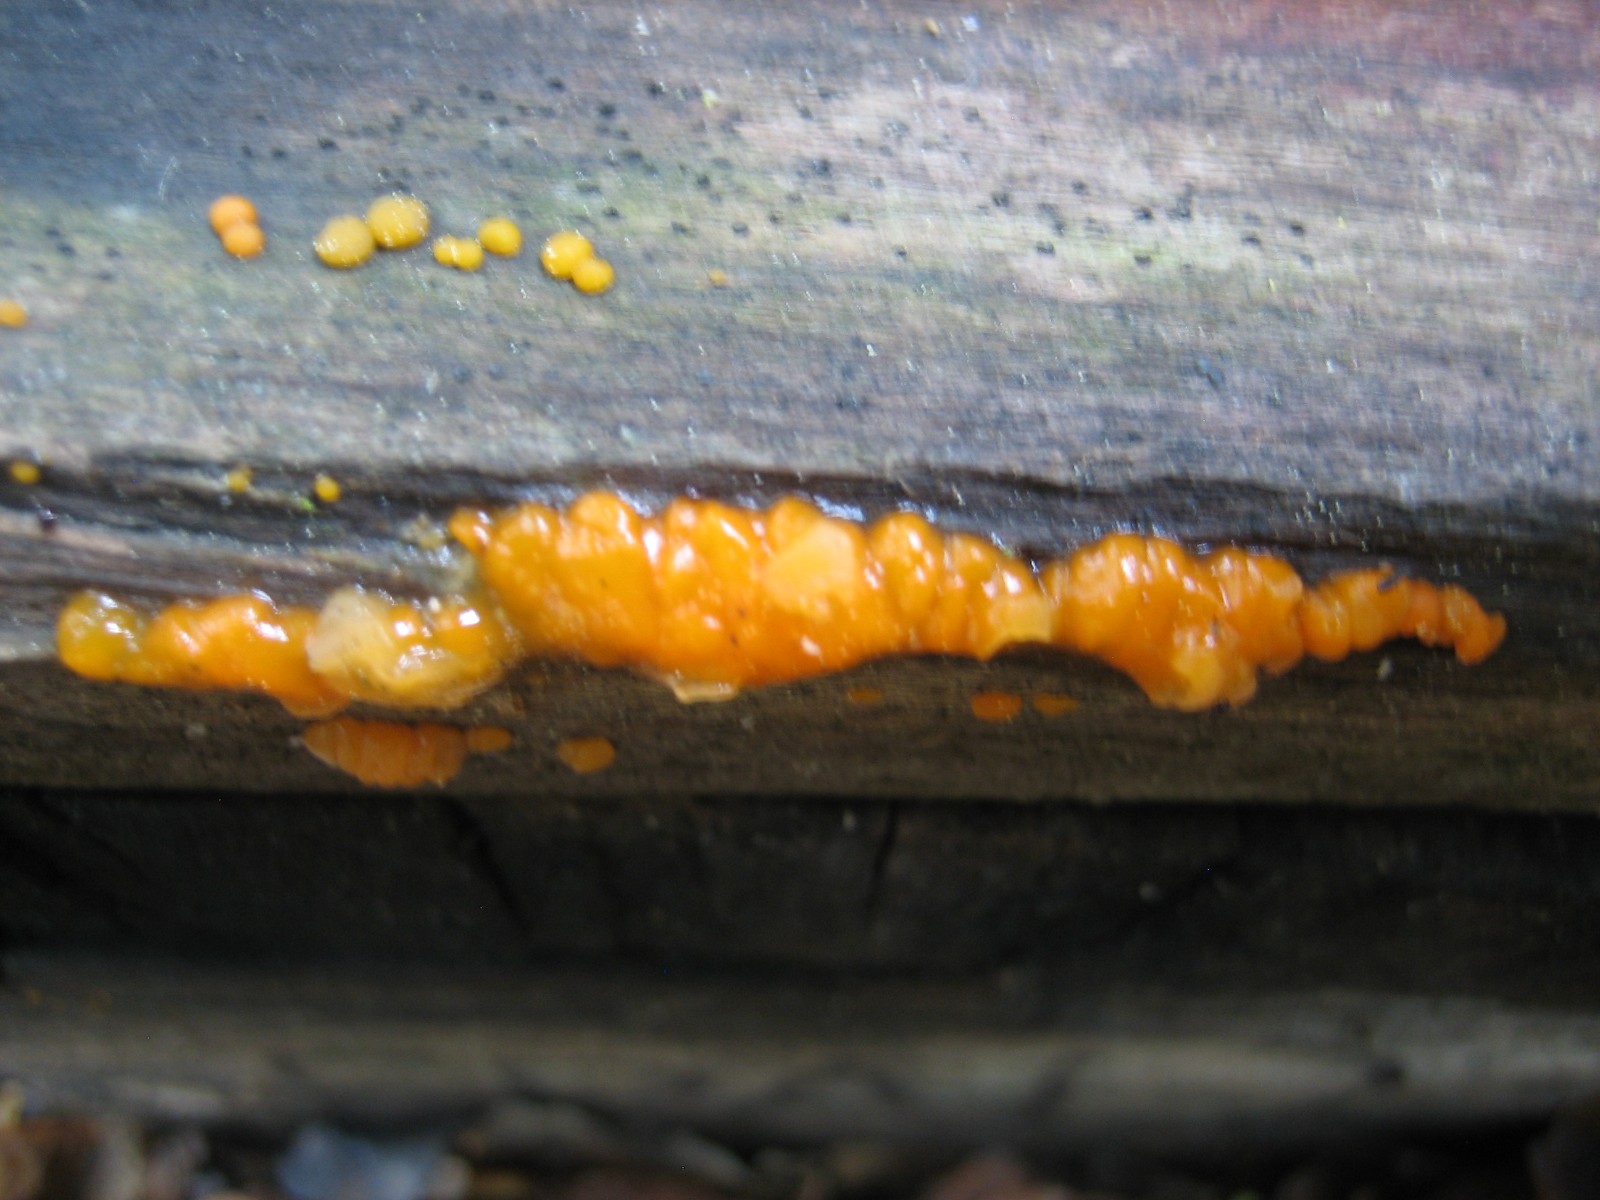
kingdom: Fungi
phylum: Basidiomycota
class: Dacrymycetes
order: Dacrymycetales
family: Dacrymycetaceae
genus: Dacrymyces
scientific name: Dacrymyces stillatus
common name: almindelig tåresvamp
